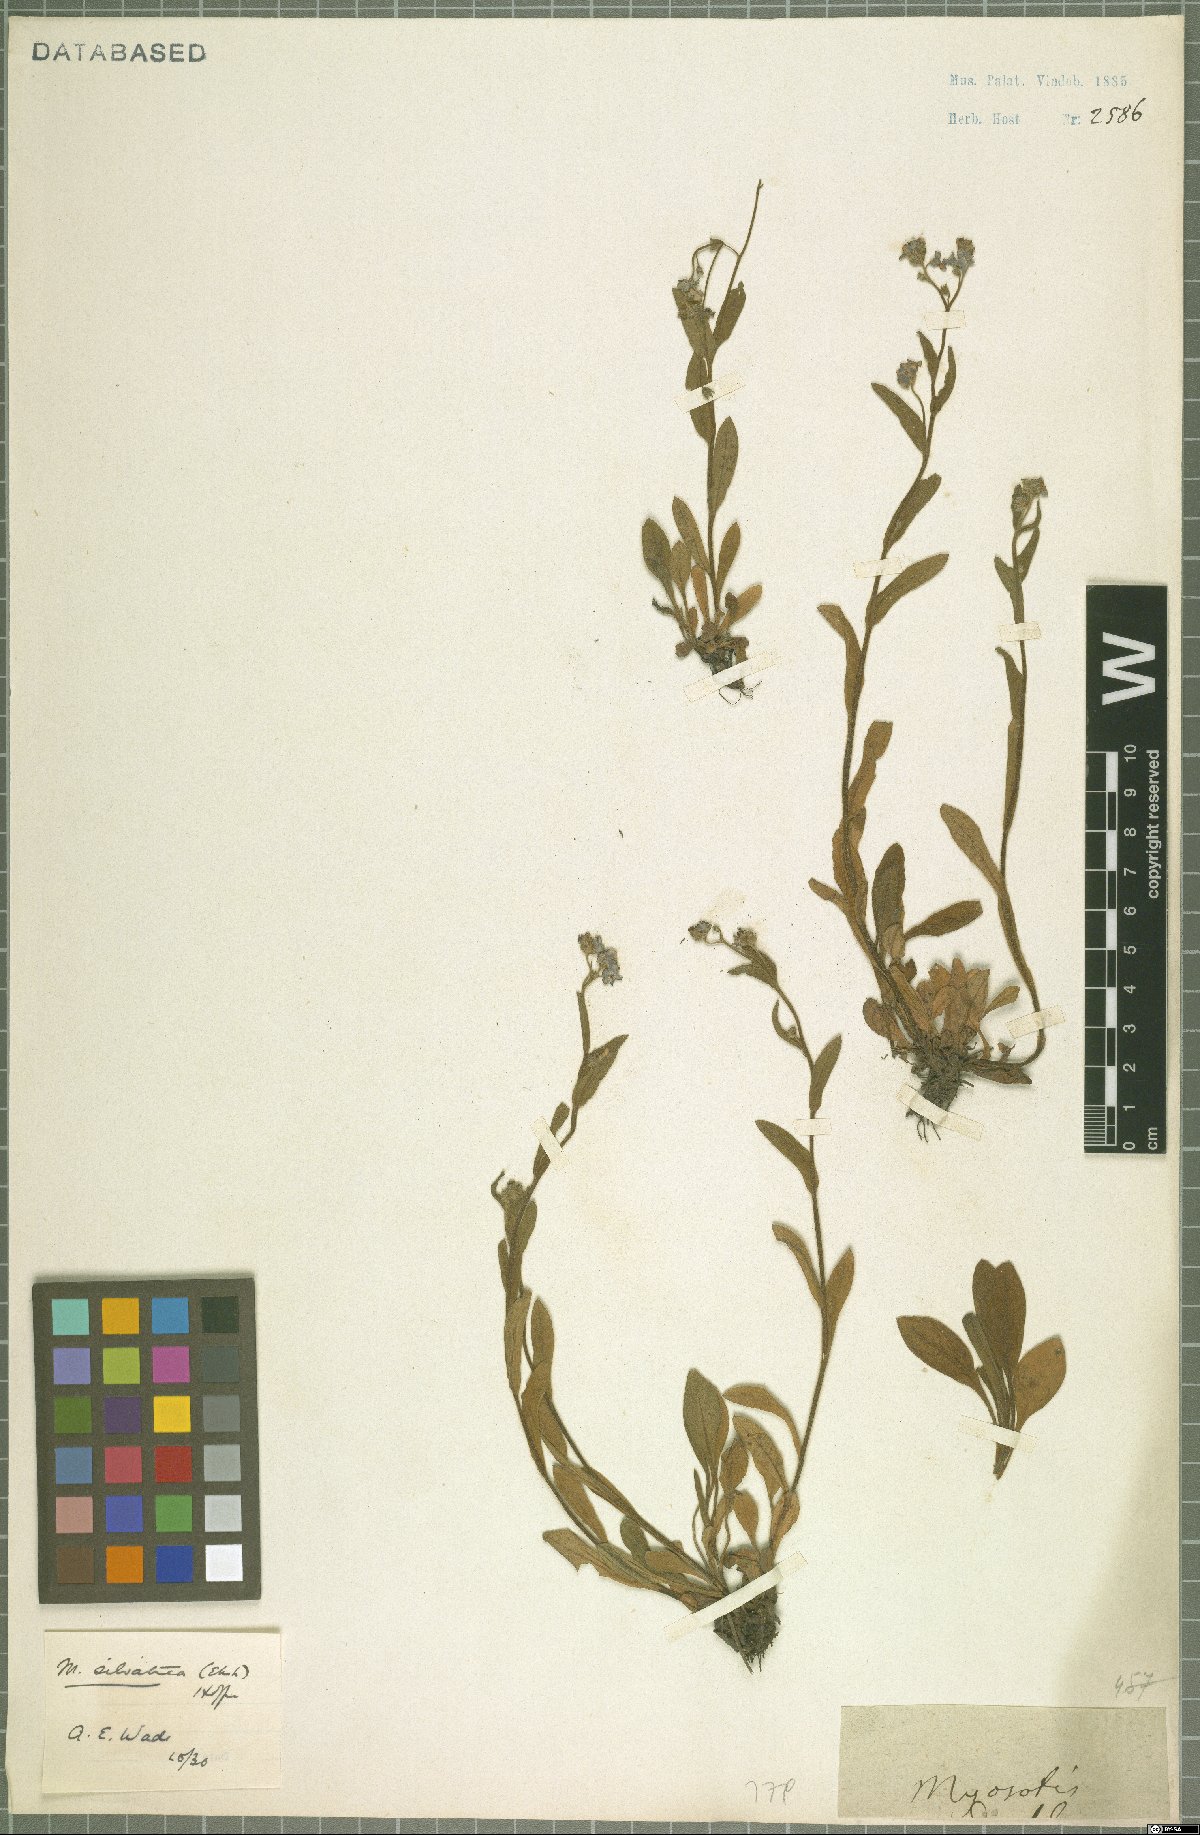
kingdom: Plantae
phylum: Tracheophyta
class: Magnoliopsida
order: Boraginales
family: Boraginaceae
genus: Myosotis
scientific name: Myosotis sylvatica
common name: Wood forget-me-not
